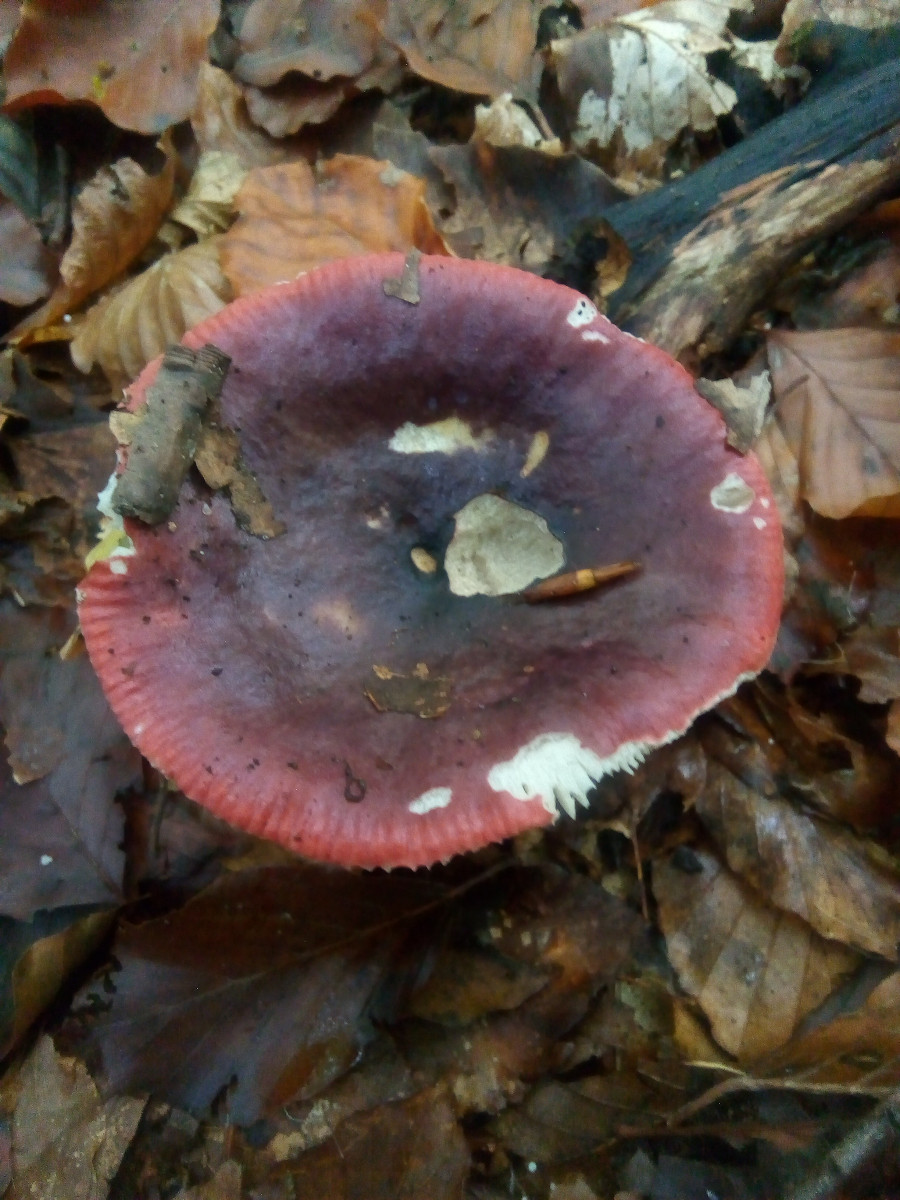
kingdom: Fungi
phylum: Basidiomycota
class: Agaricomycetes
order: Russulales
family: Russulaceae
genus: Russula
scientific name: Russula atropurpurea
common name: purpurbroget skørhat
